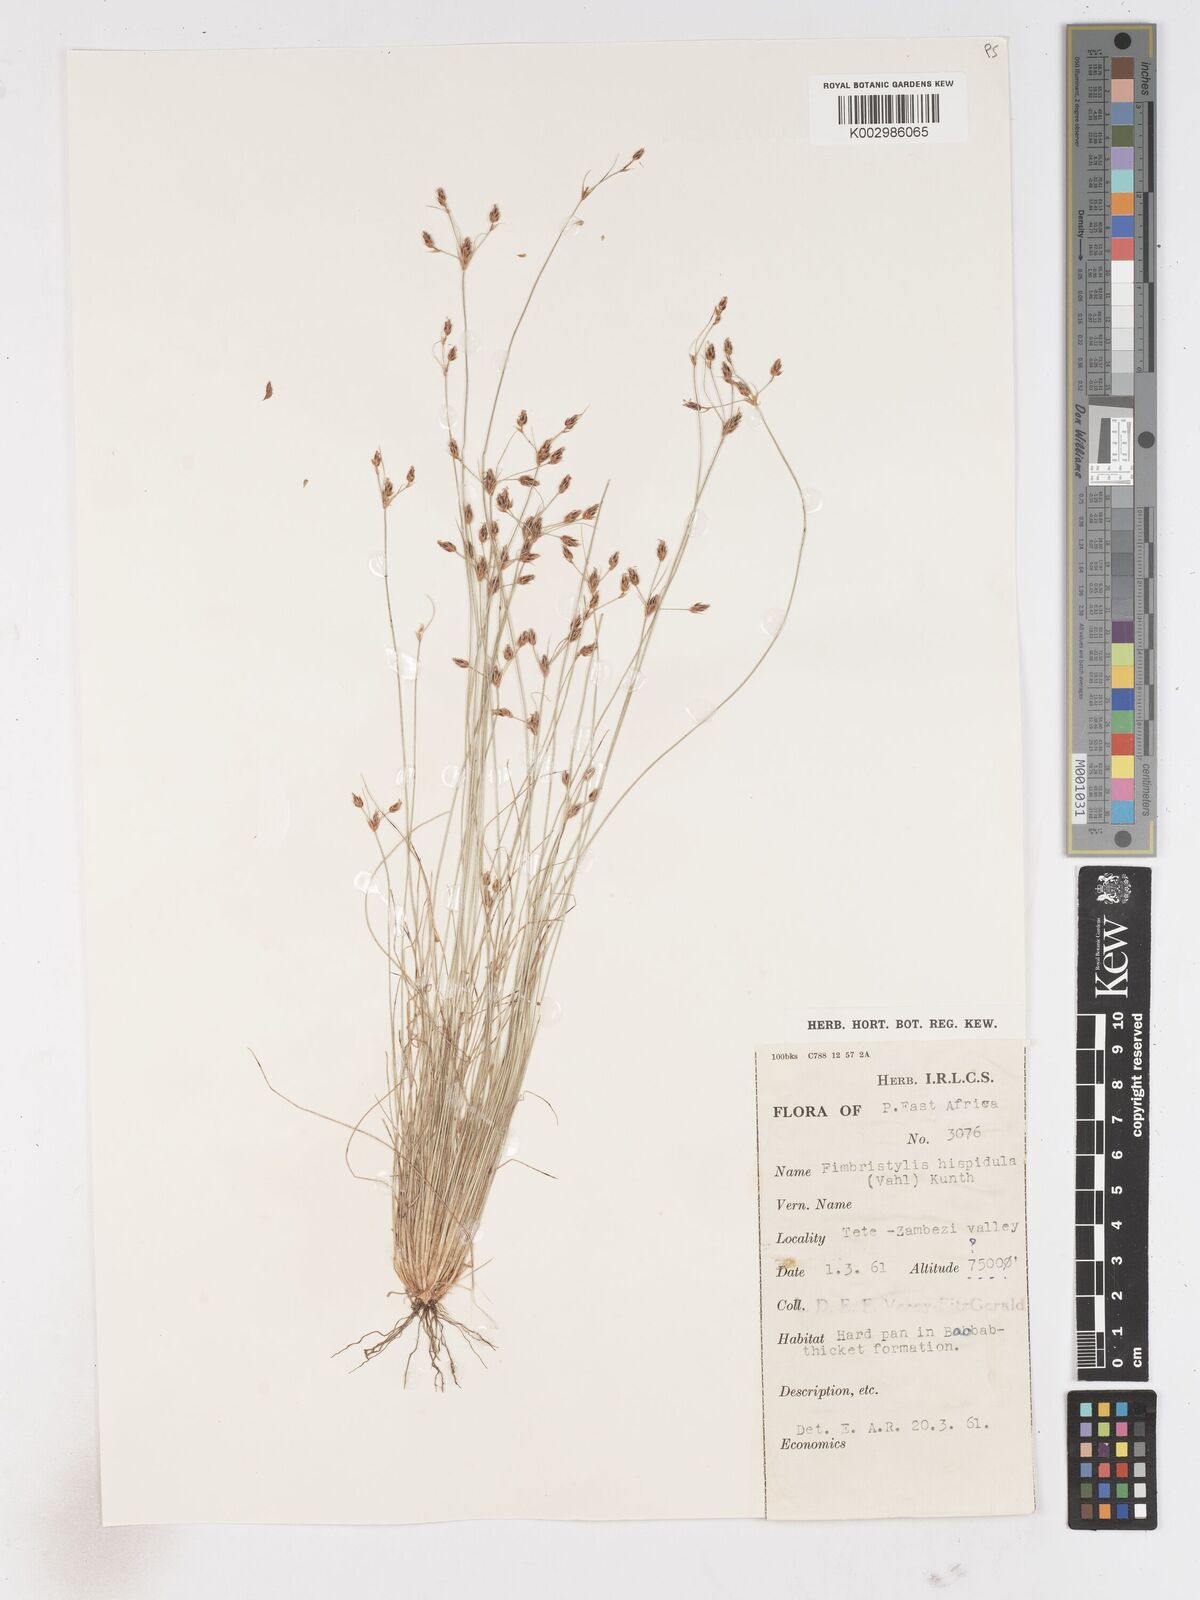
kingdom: Plantae
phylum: Tracheophyta
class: Liliopsida
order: Poales
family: Cyperaceae
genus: Fimbristylis
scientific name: Fimbristylis
